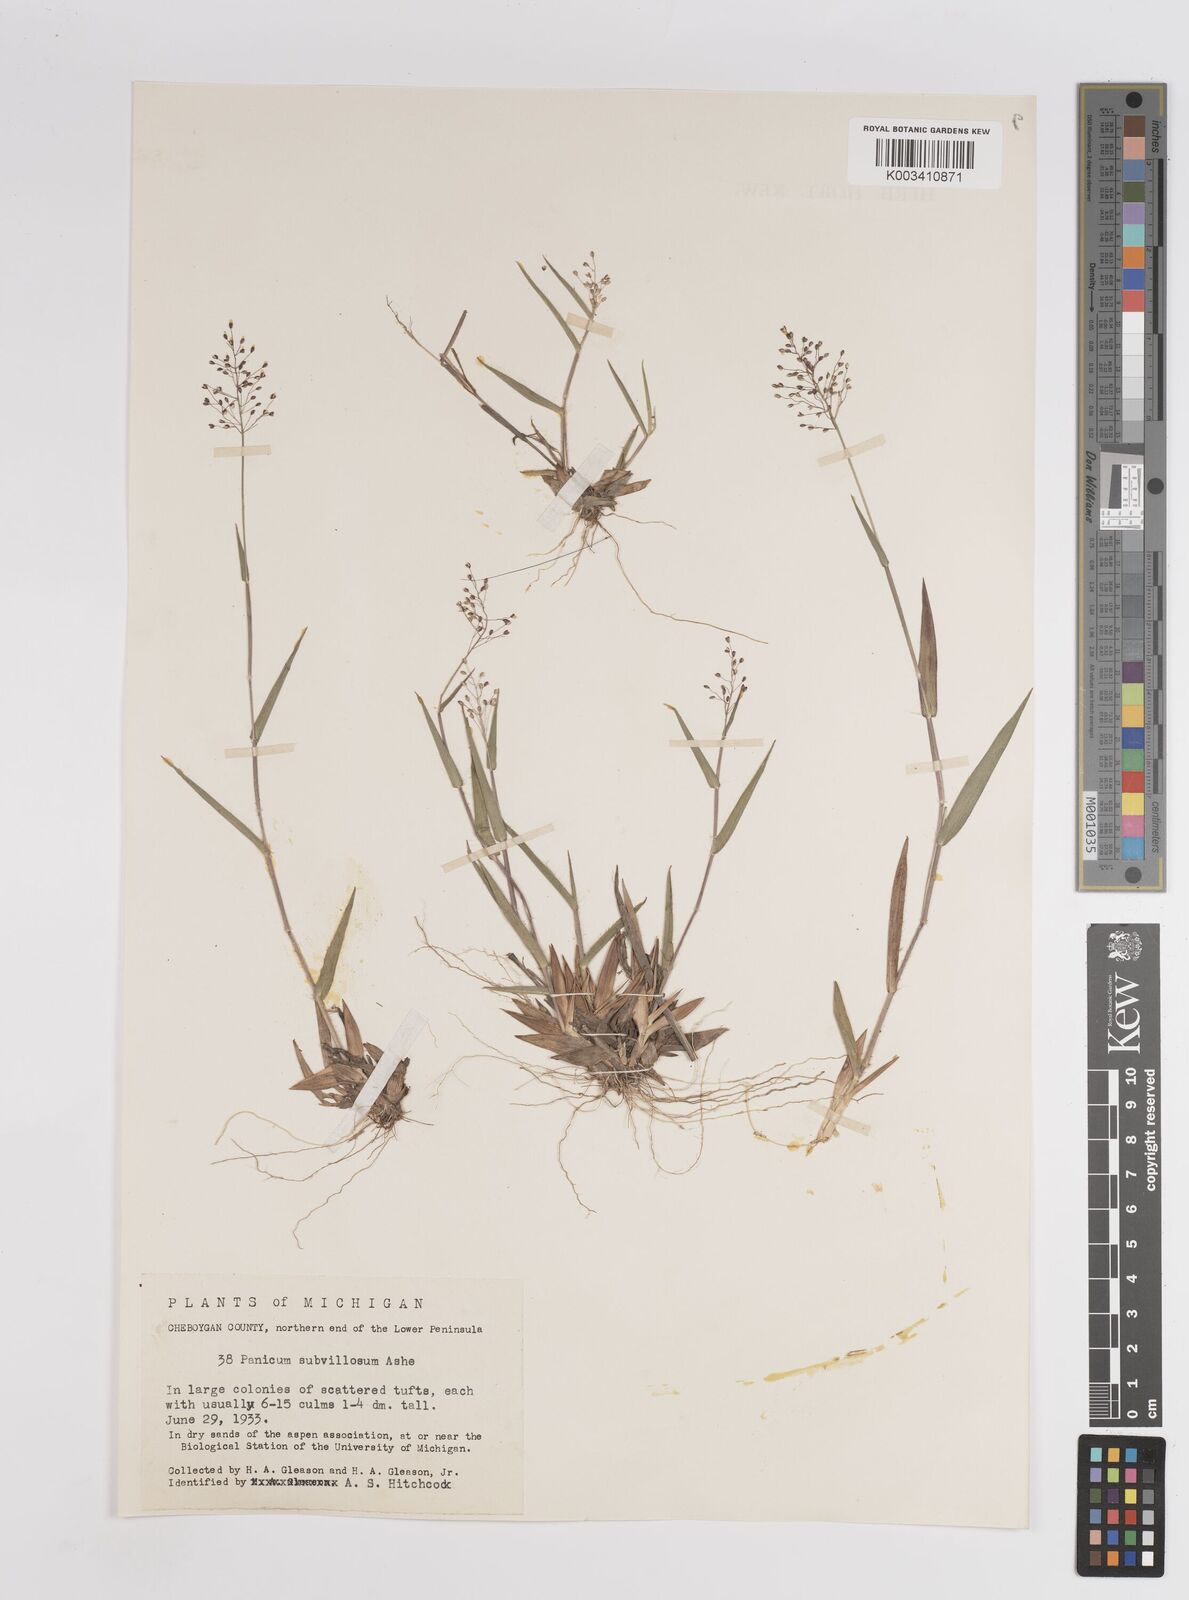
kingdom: Plantae
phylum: Tracheophyta
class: Liliopsida
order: Poales
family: Poaceae
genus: Dichanthelium
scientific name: Dichanthelium subvillosum
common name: Soft-haired panicgrass
